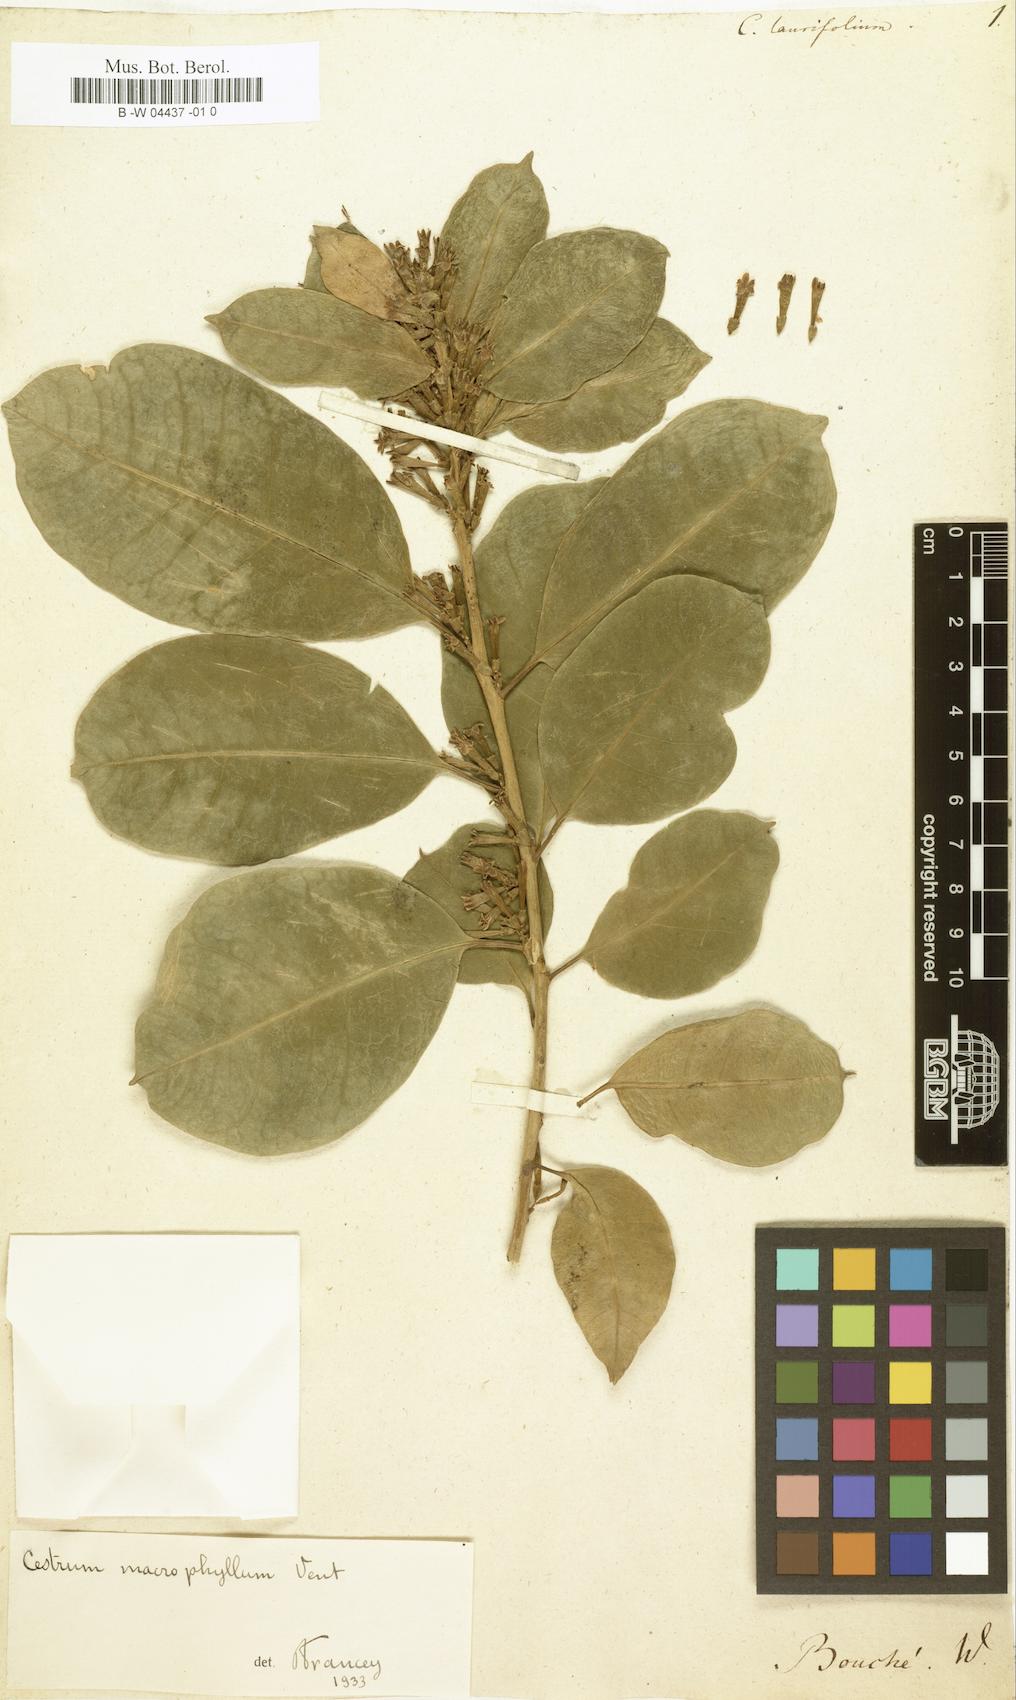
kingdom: Plantae
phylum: Tracheophyta
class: Magnoliopsida
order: Solanales
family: Solanaceae
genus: Cestrum
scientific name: Cestrum
